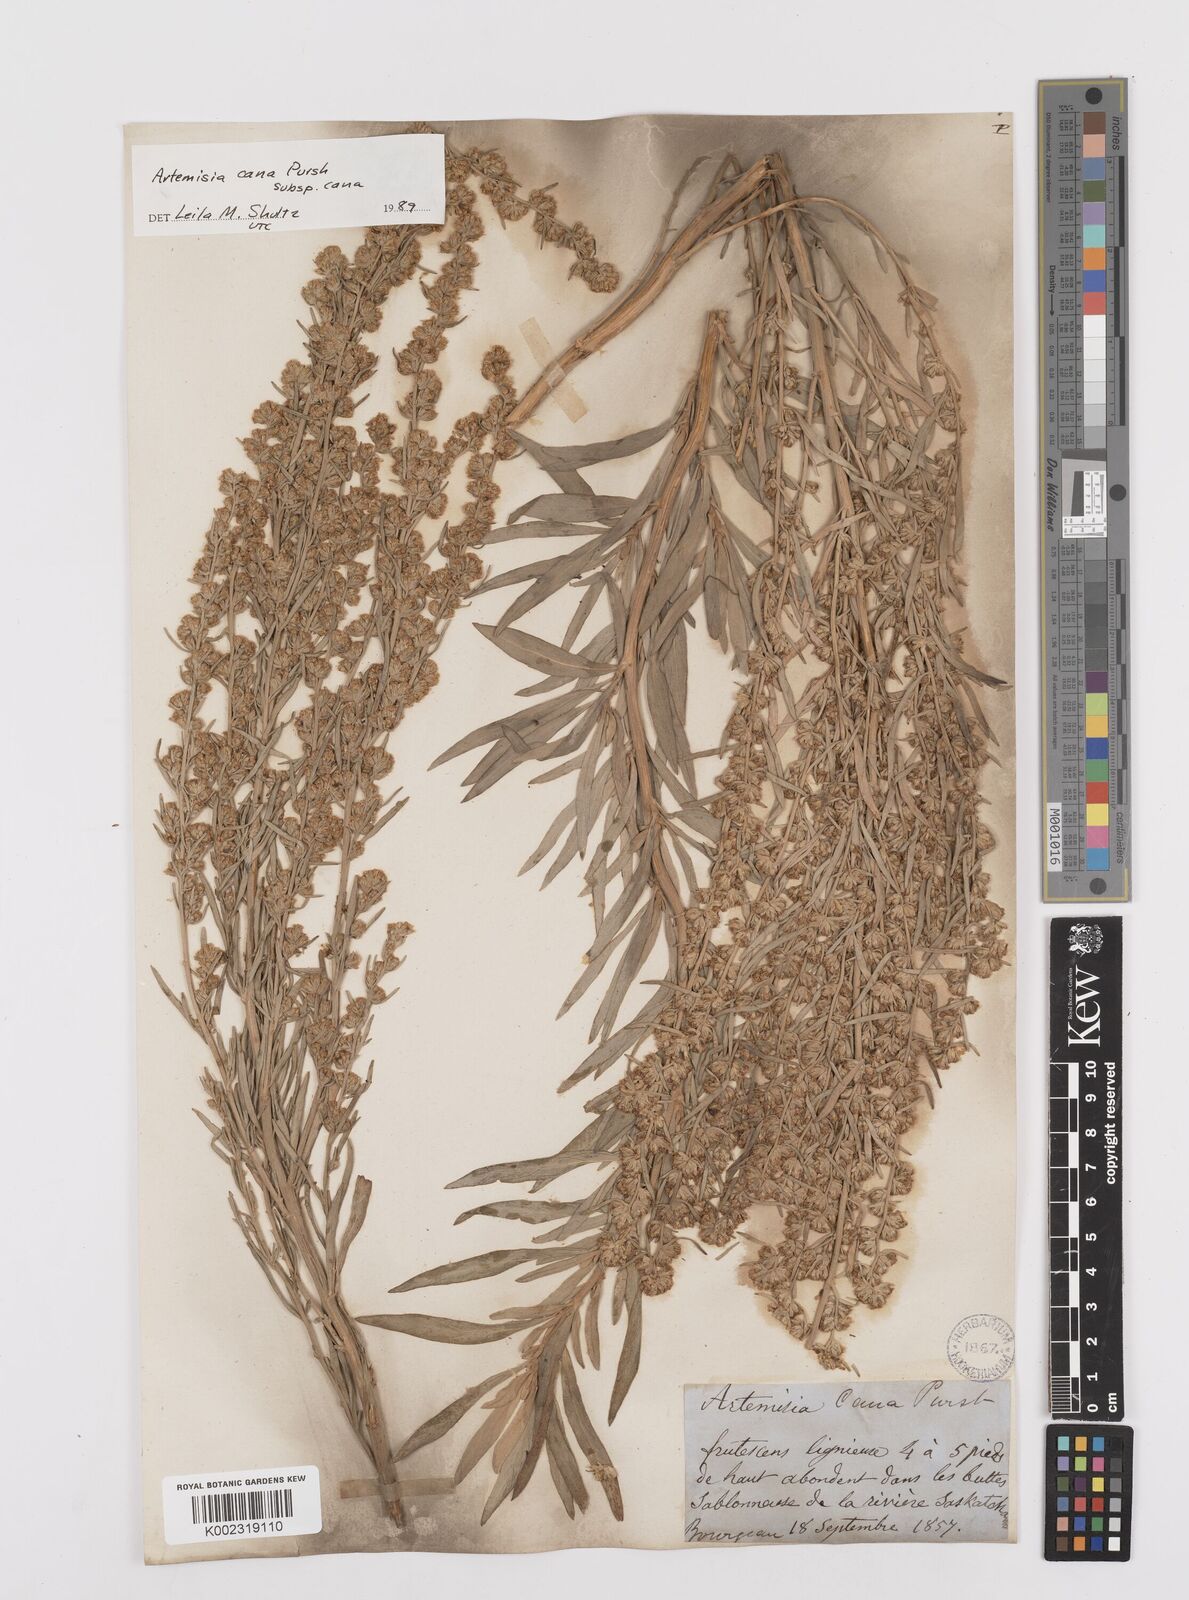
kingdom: Plantae
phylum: Tracheophyta
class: Magnoliopsida
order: Asterales
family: Asteraceae
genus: Artemisia
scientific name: Artemisia cana
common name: Silver sagebrush
